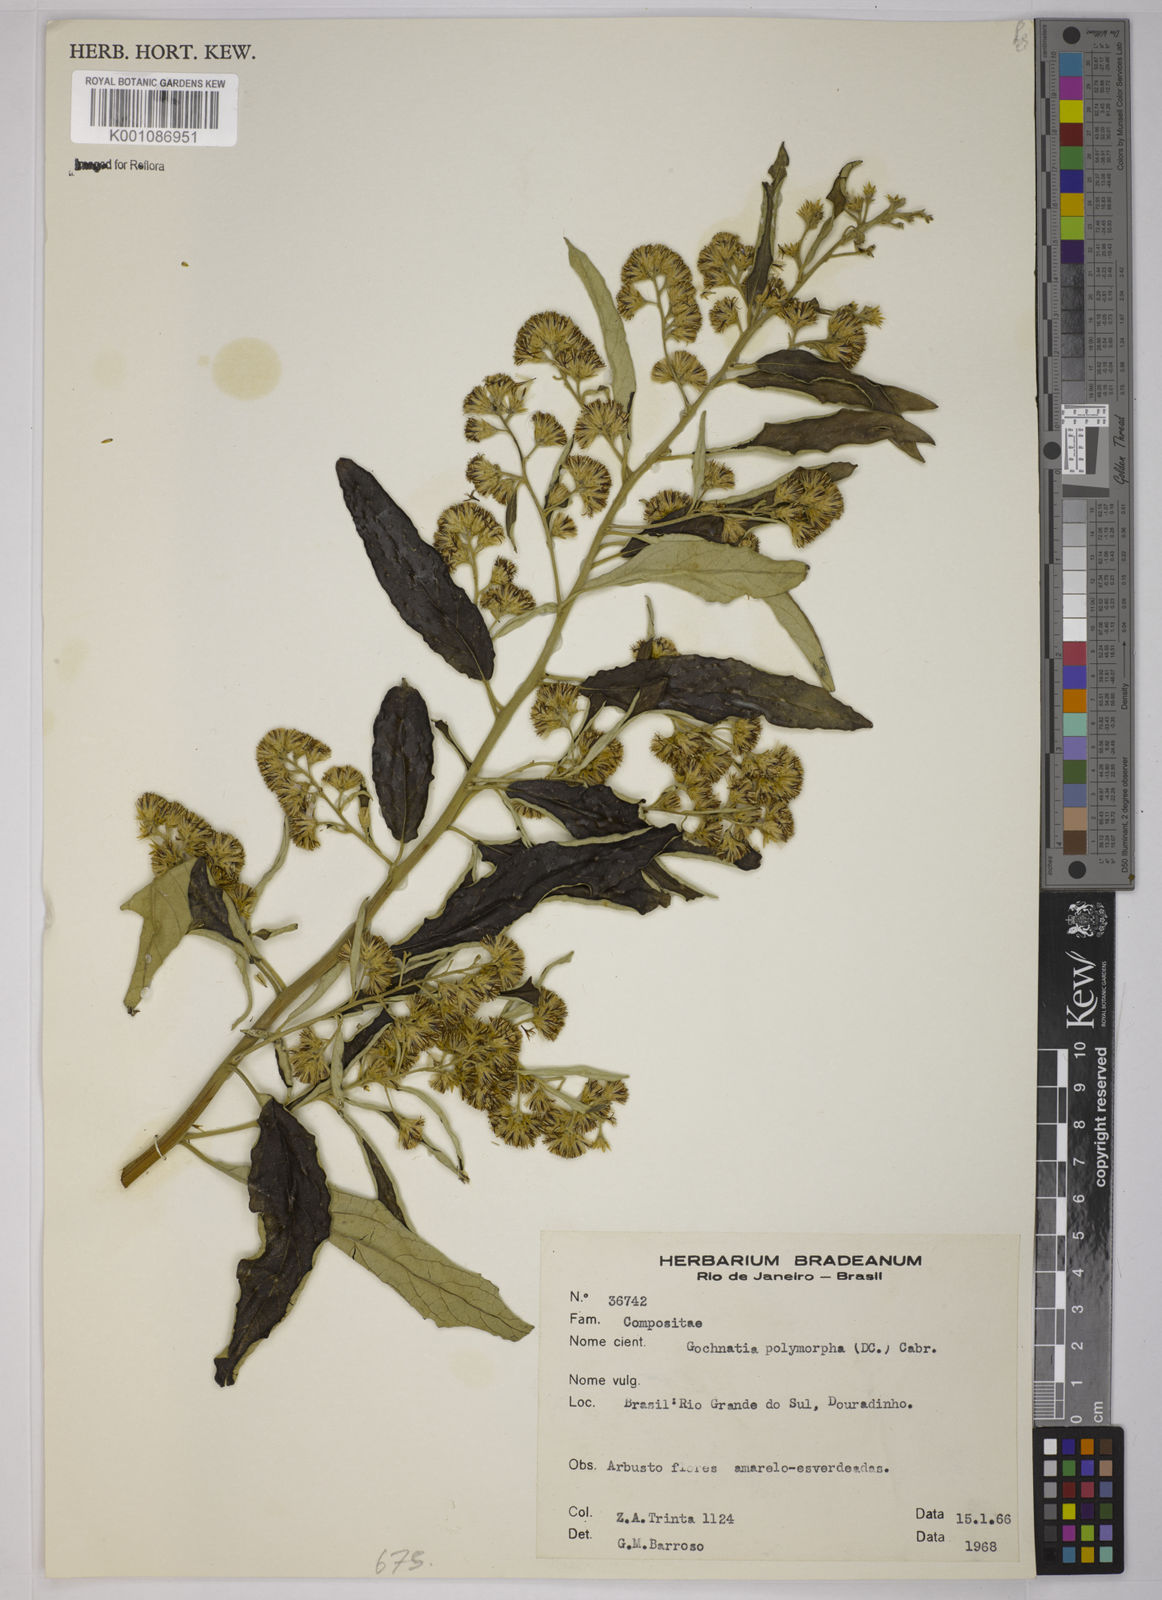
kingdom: Plantae
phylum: Tracheophyta
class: Magnoliopsida
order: Asterales
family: Asteraceae
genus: Moquiniastrum
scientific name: Moquiniastrum polymorphum
